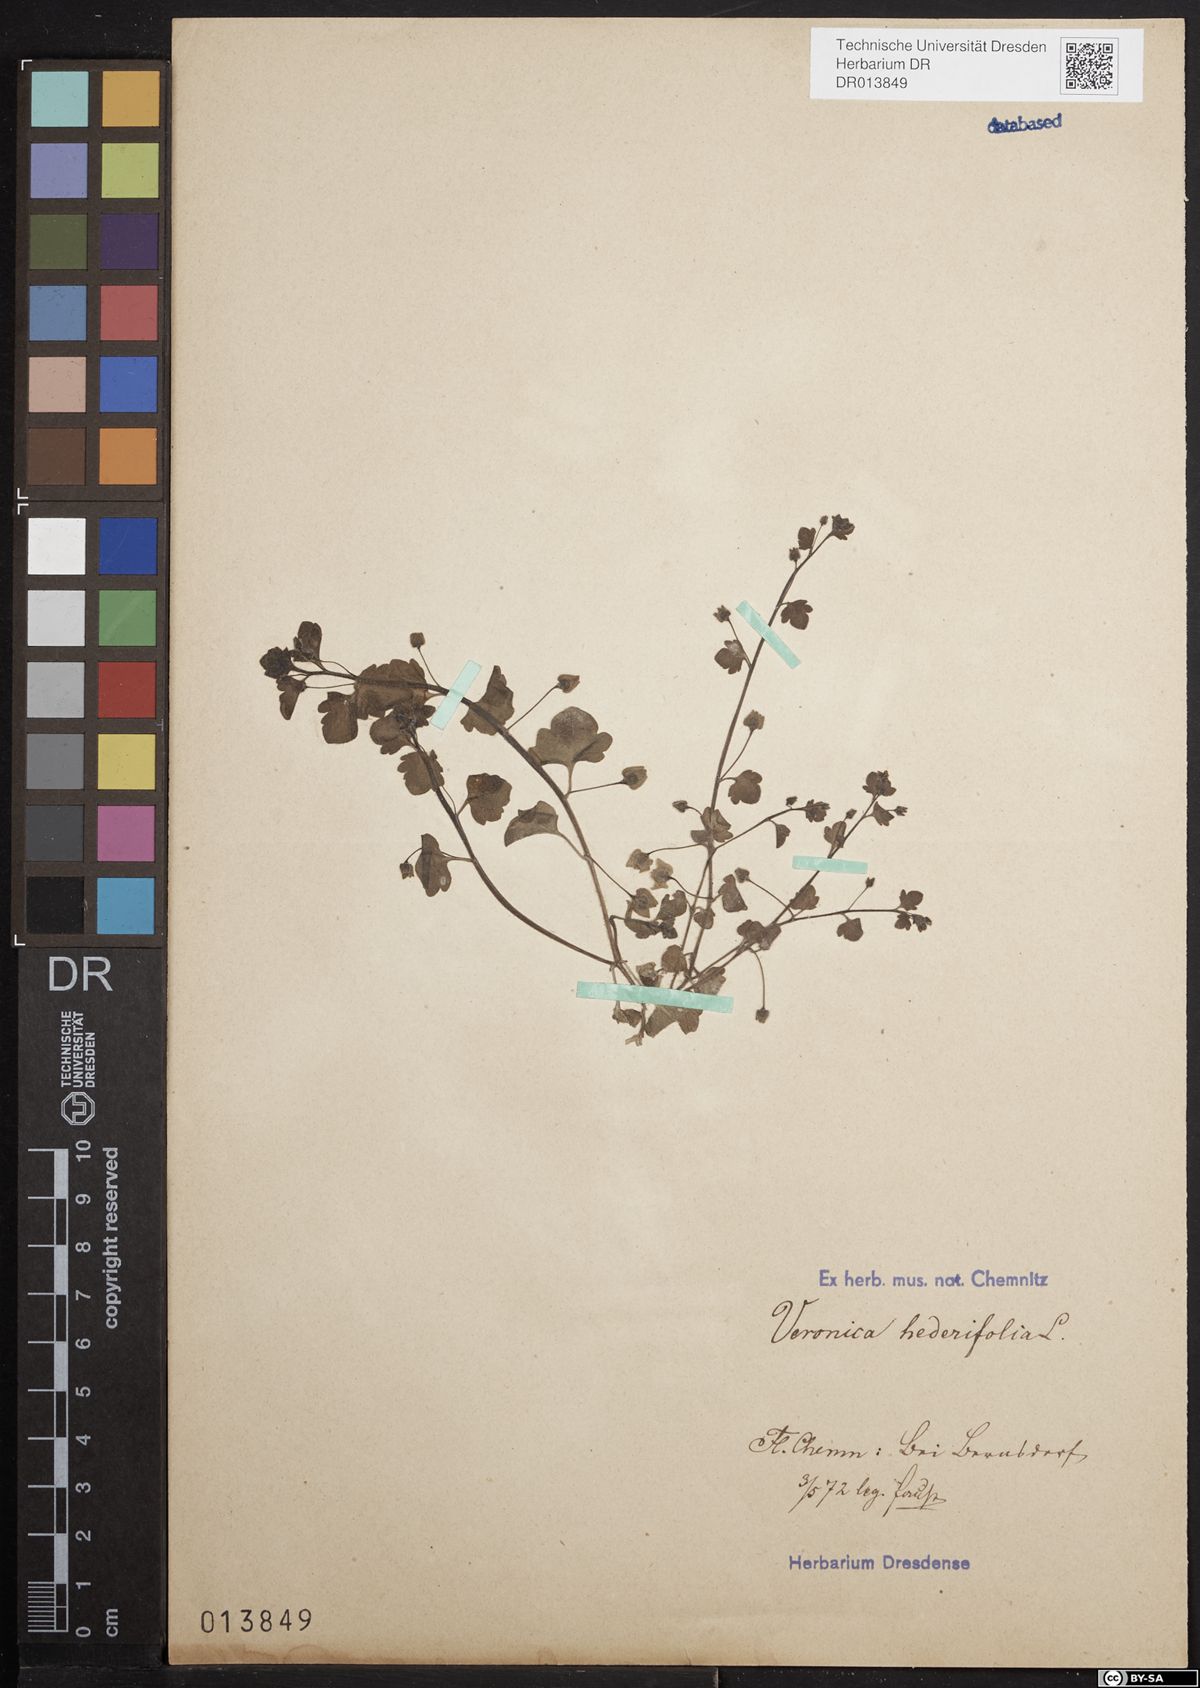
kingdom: Plantae
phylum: Tracheophyta
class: Magnoliopsida
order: Lamiales
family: Plantaginaceae
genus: Veronica
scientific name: Veronica hederifolia
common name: Ivy-leaved speedwell
